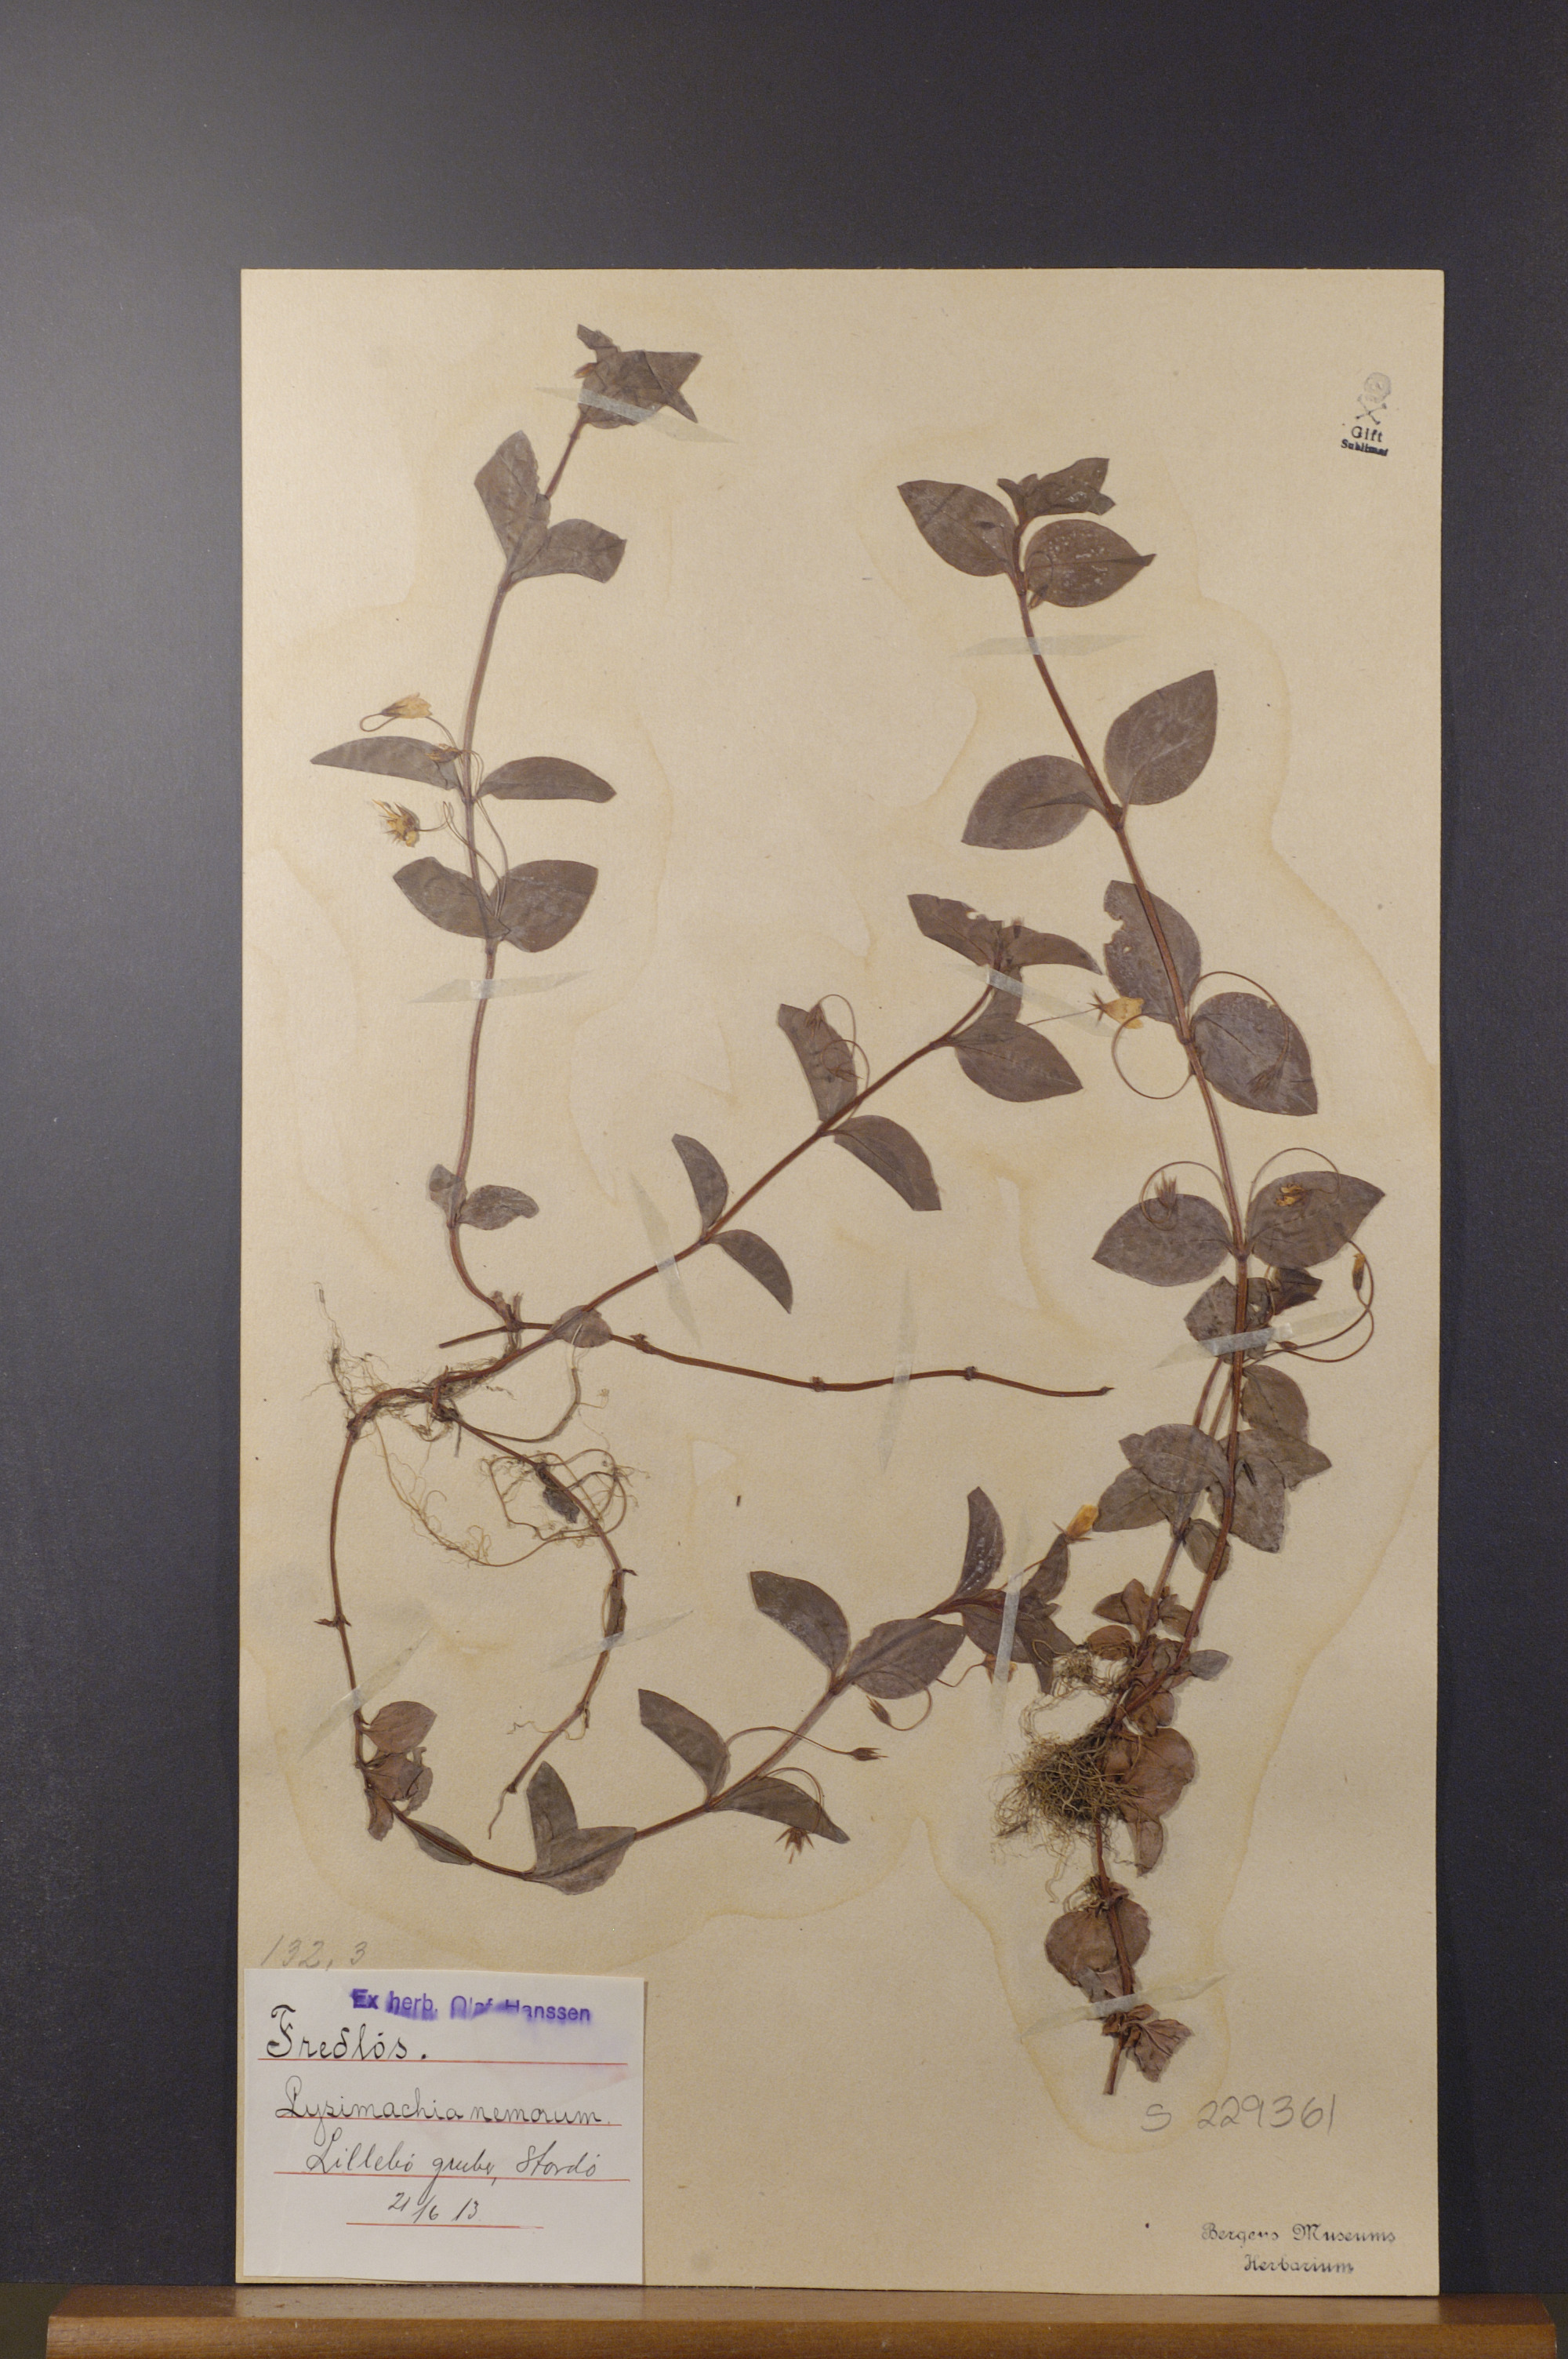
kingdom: Plantae
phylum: Tracheophyta
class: Magnoliopsida
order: Ericales
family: Primulaceae
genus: Lysimachia
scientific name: Lysimachia nemorum
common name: Yellow pimpernel
